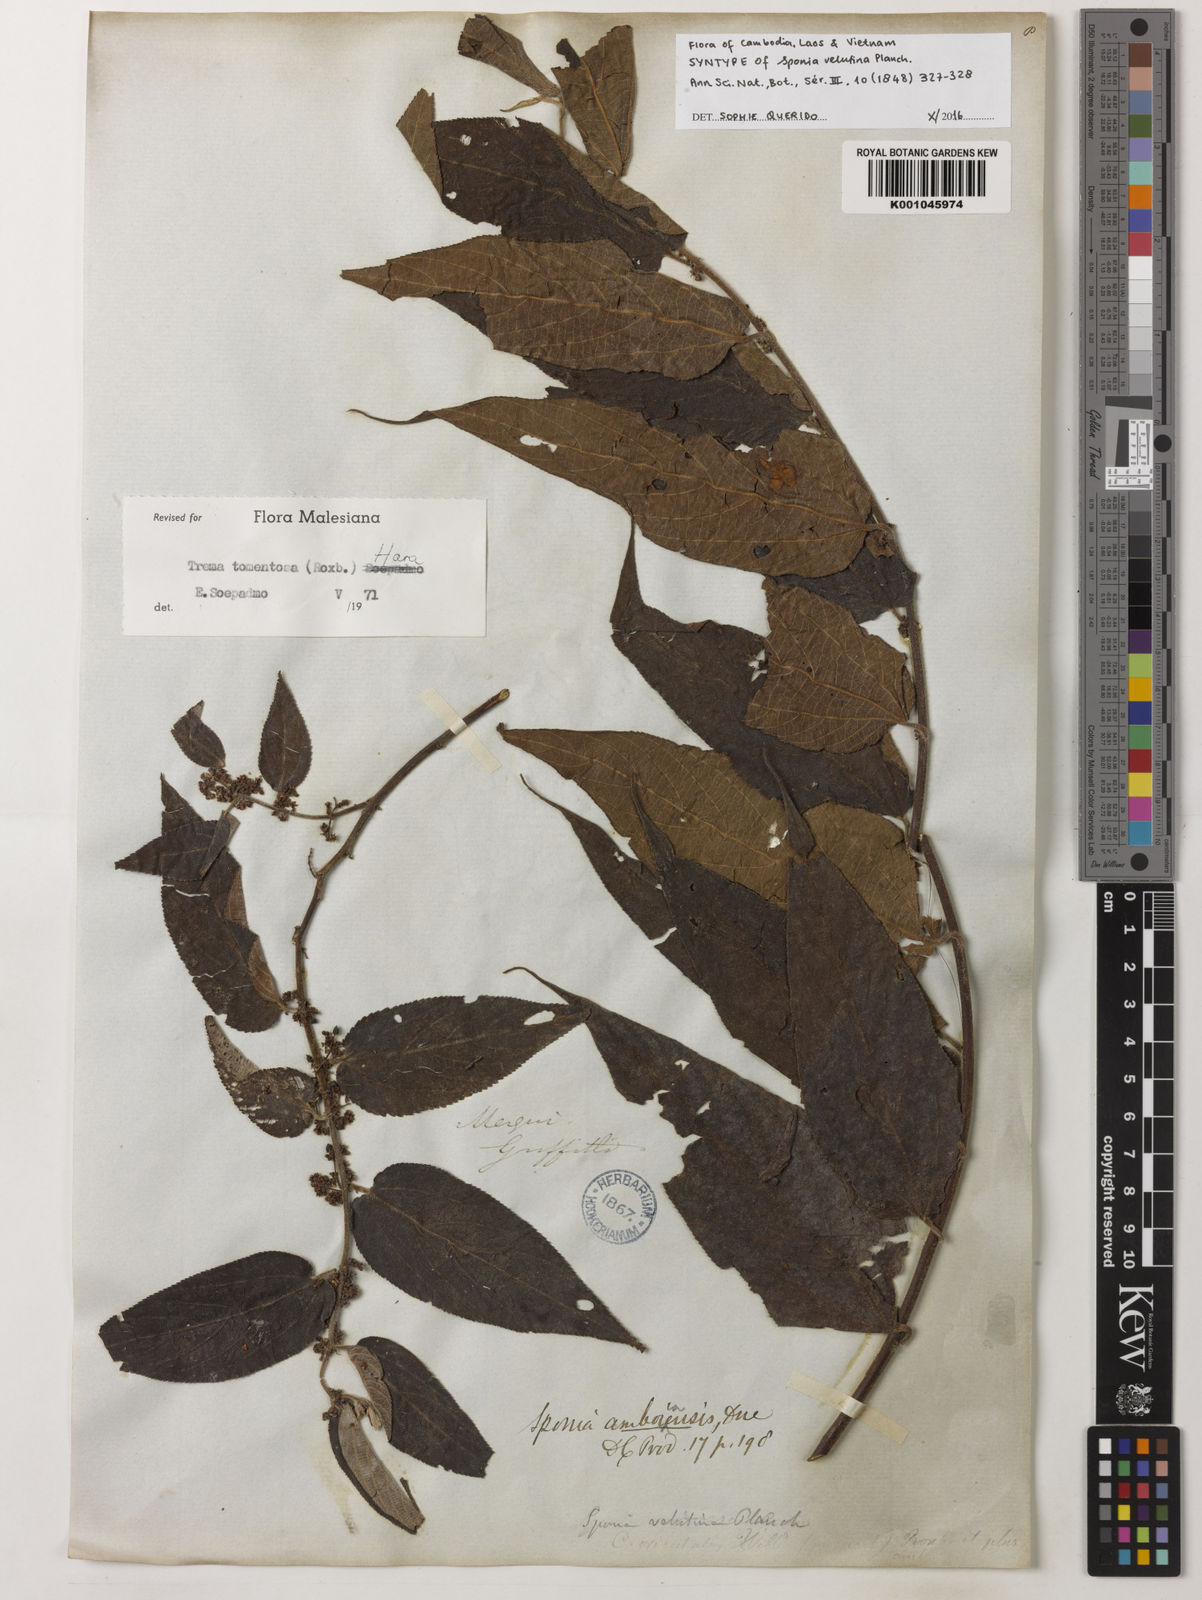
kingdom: Plantae
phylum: Tracheophyta
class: Magnoliopsida
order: Rosales
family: Cannabaceae
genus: Trema
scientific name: Trema tomentosum
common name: Peach-leaf-poisonbush
